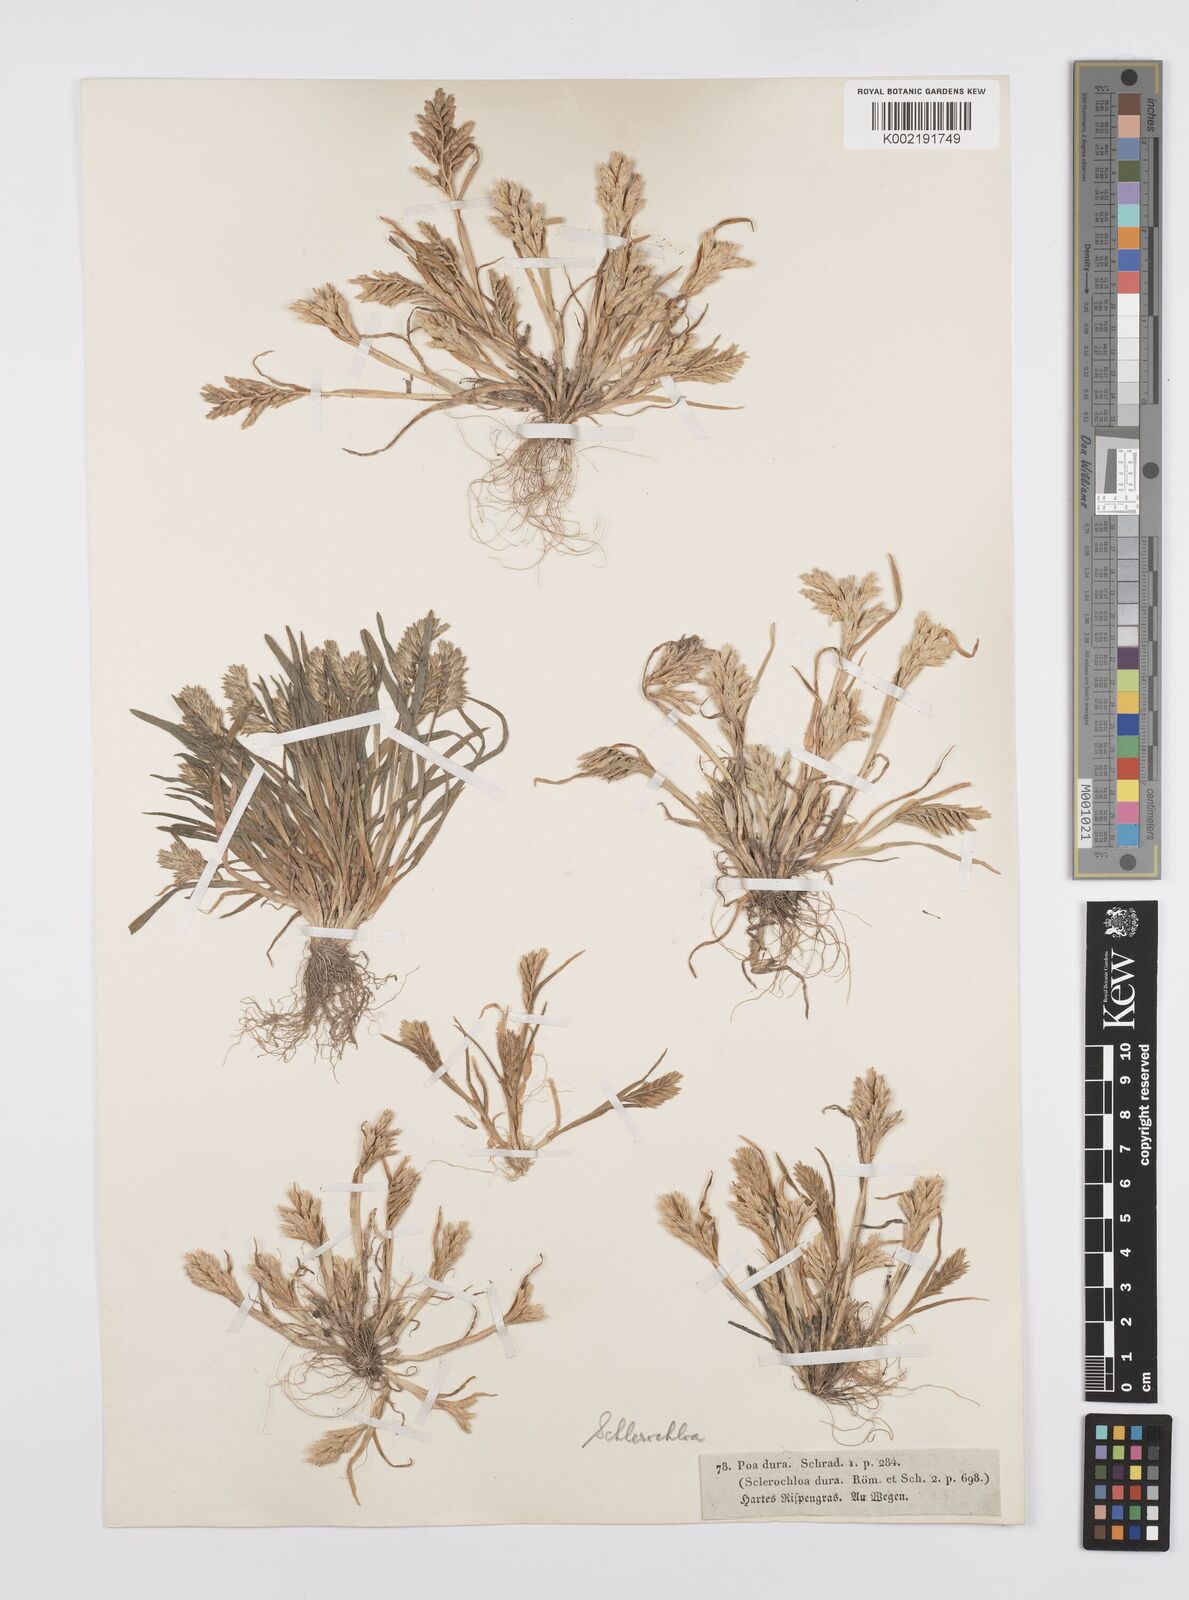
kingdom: Plantae
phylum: Tracheophyta
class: Liliopsida
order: Poales
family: Poaceae
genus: Sclerochloa
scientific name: Sclerochloa dura
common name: Common hardgrass
